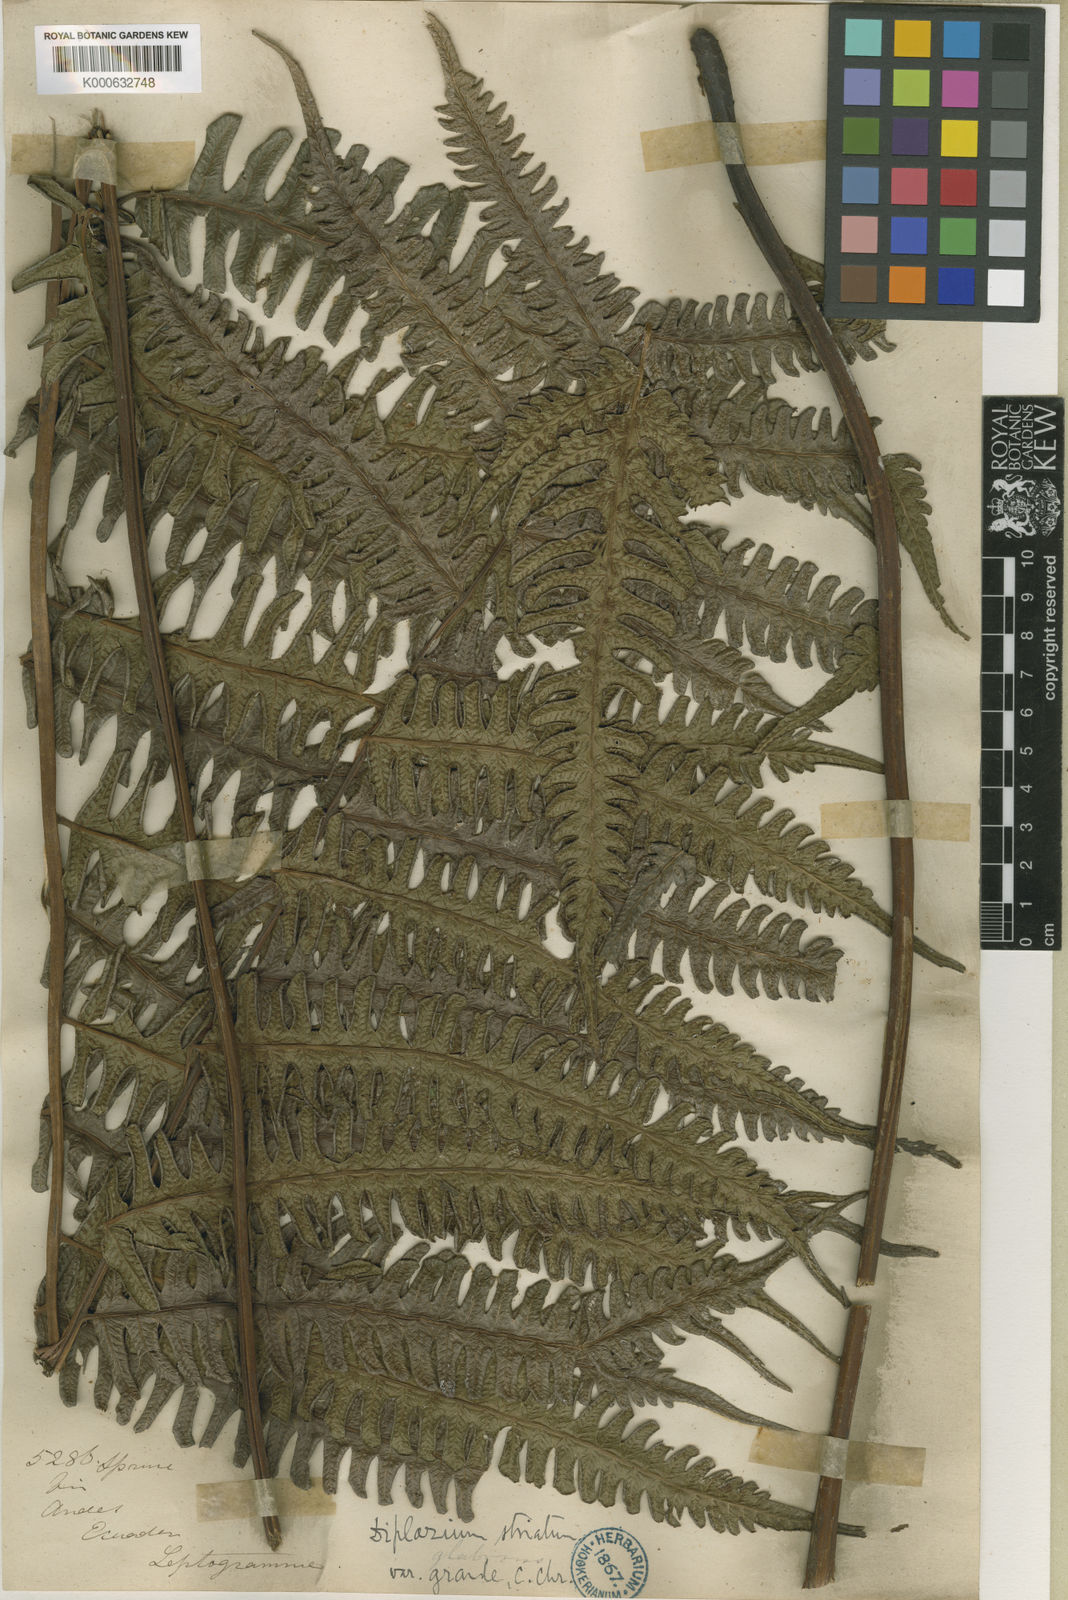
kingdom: Plantae
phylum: Tracheophyta
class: Polypodiopsida
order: Polypodiales
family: Athyriaceae
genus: Diplazium
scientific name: Diplazium lindbergii
